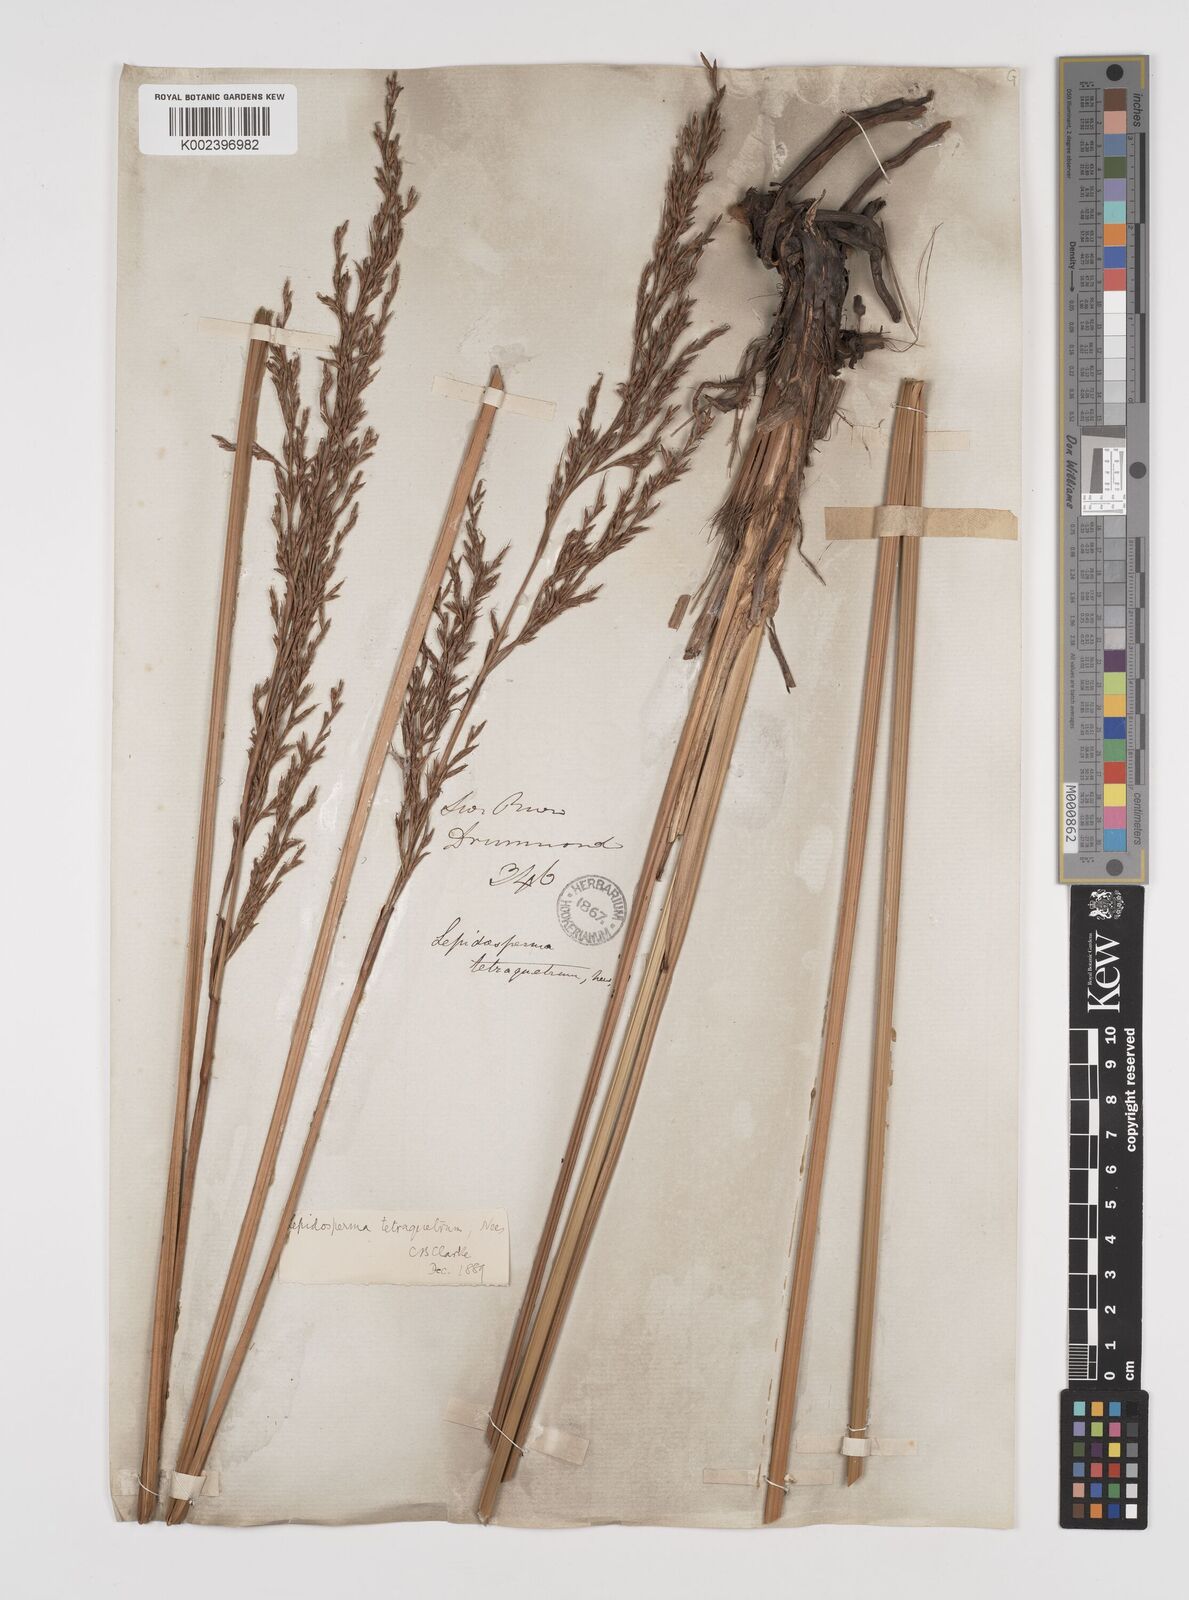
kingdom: Plantae
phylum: Tracheophyta
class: Liliopsida
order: Poales
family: Cyperaceae
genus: Lepidosperma
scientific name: Lepidosperma tetraquetrum
